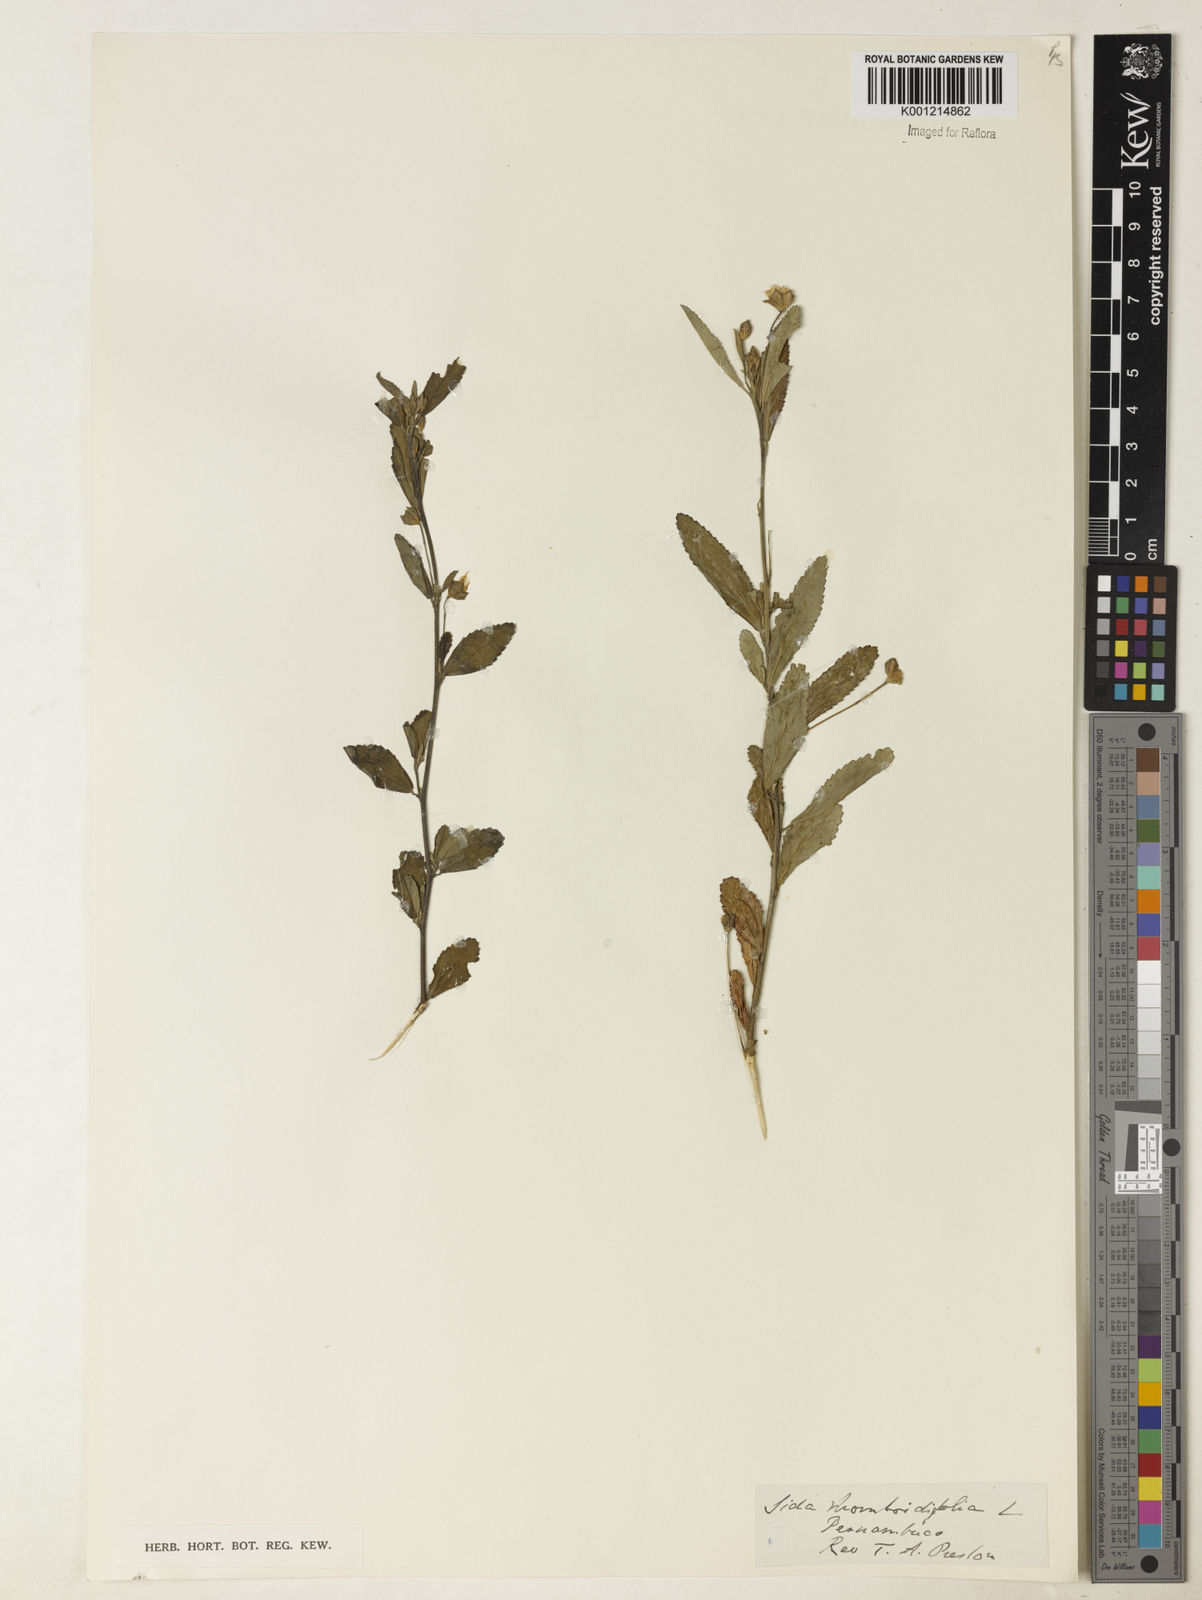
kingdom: Plantae
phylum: Tracheophyta
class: Magnoliopsida
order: Malvales
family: Malvaceae
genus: Sida
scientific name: Sida rhombifolia
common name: Queensland-hemp
